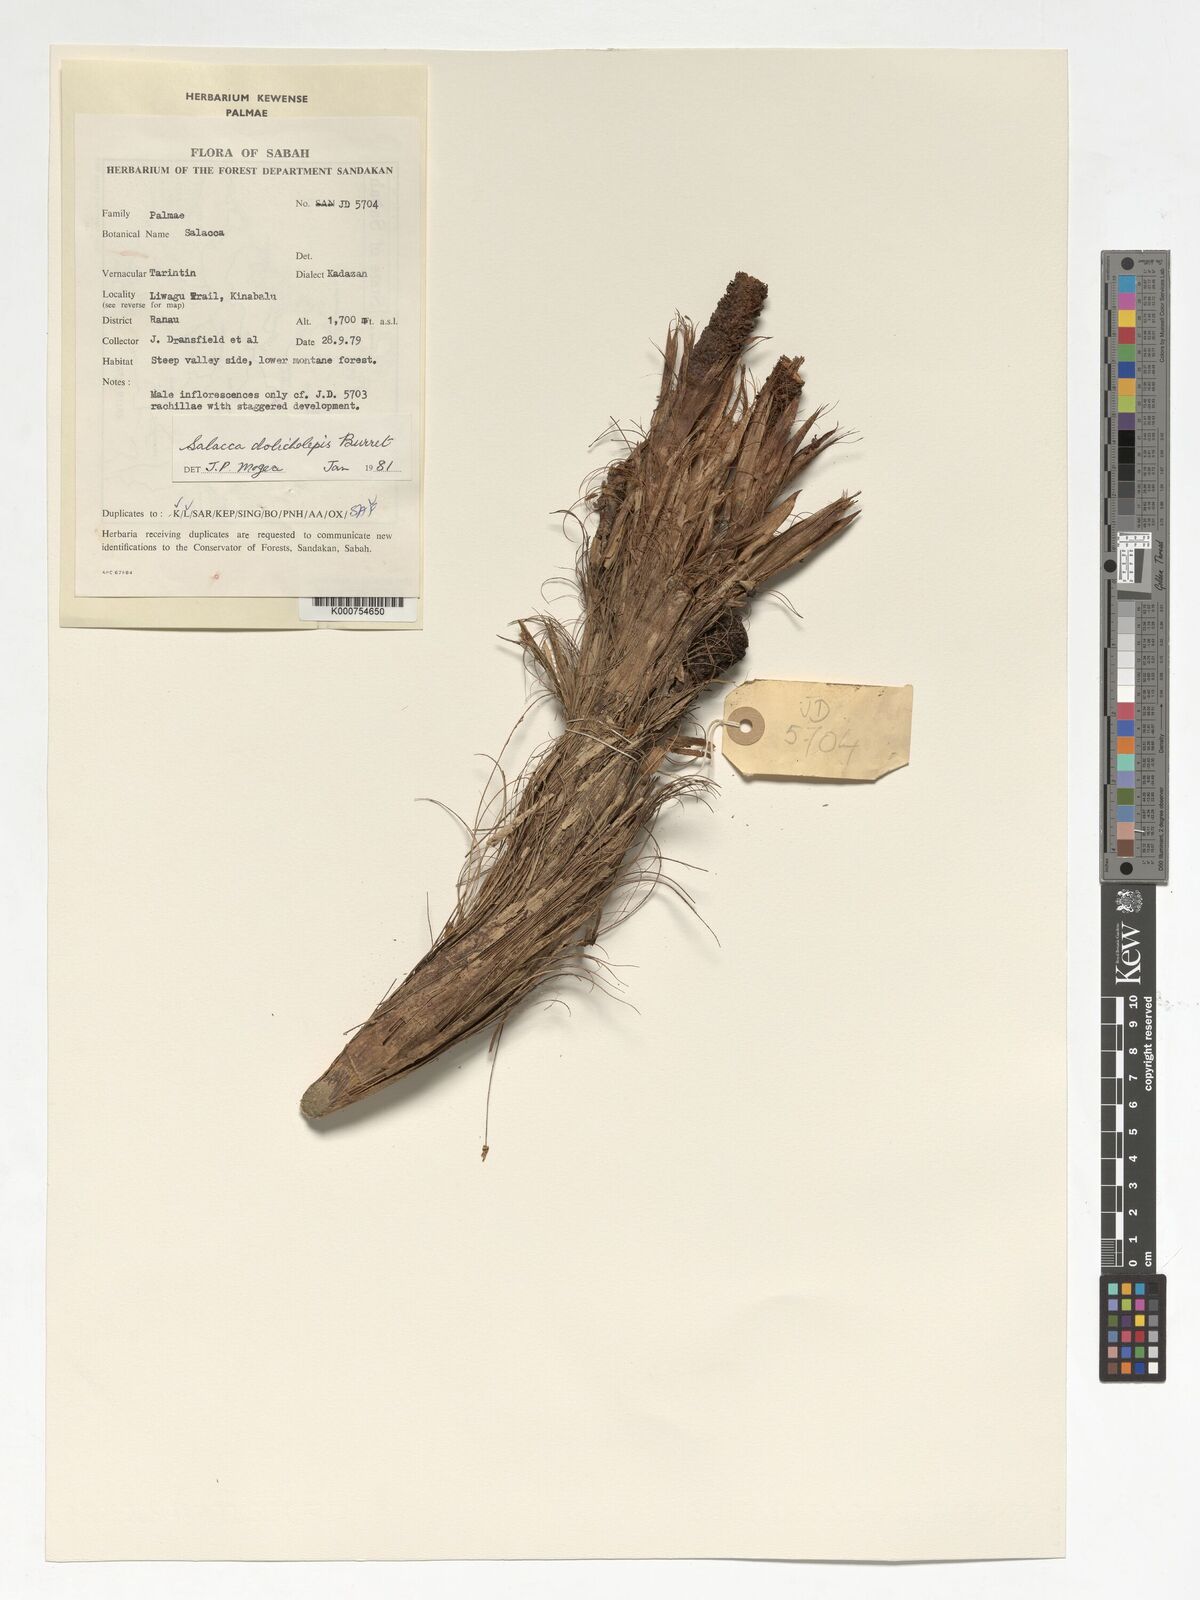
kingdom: Plantae
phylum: Tracheophyta
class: Liliopsida
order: Arecales
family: Arecaceae
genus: Salacca
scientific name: Salacca dolicholepis
